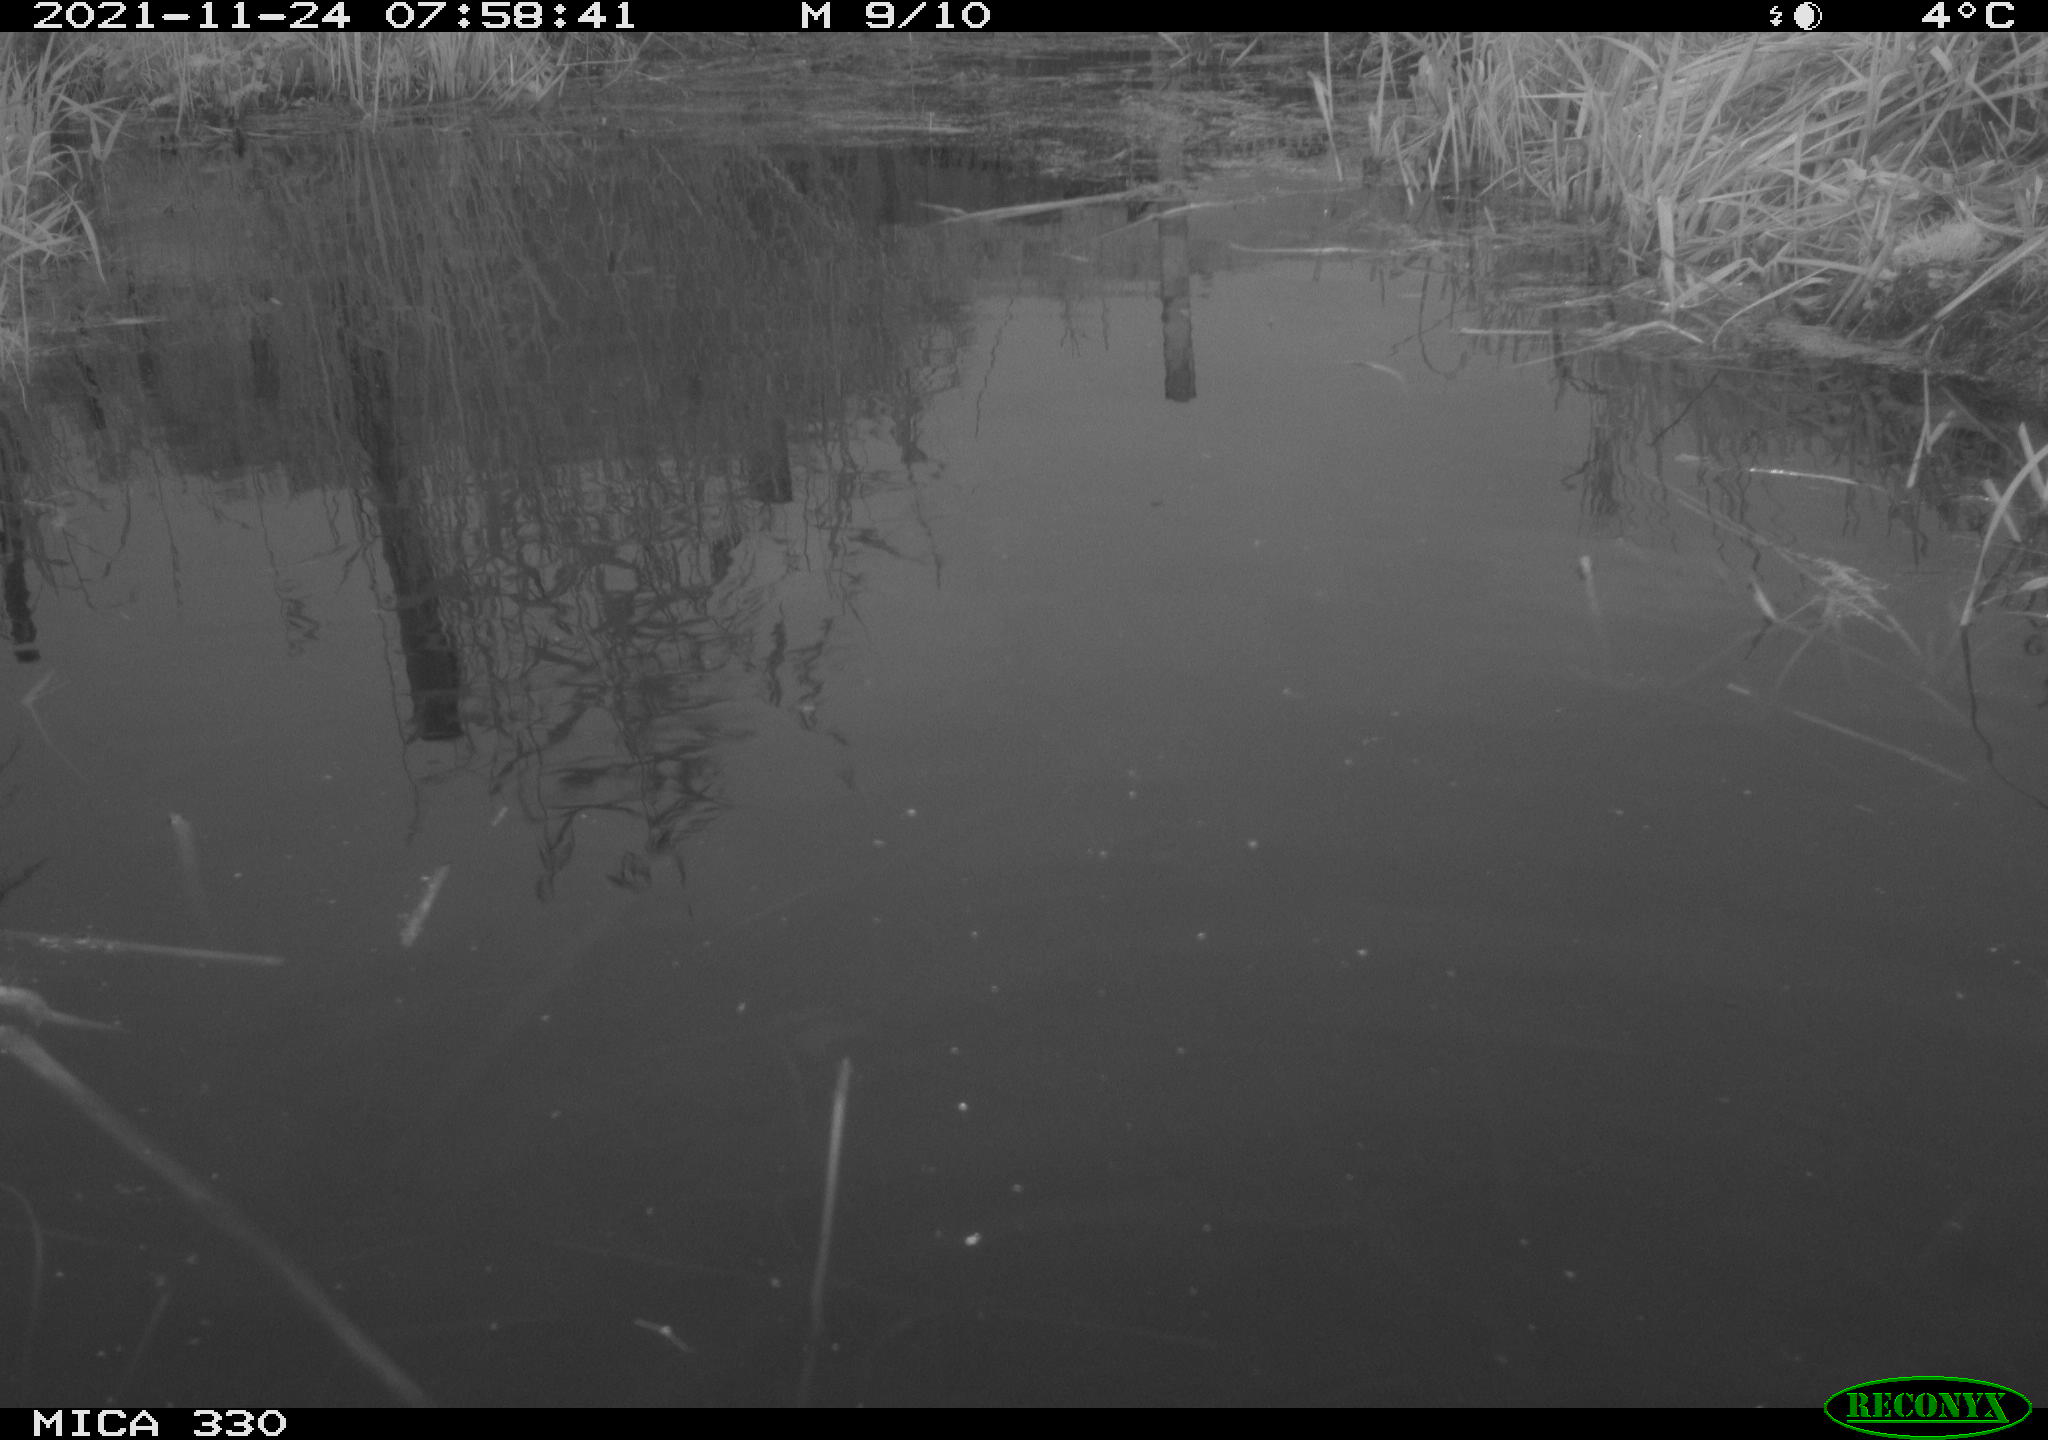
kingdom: Animalia
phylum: Chordata
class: Aves
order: Gruiformes
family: Rallidae
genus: Gallinula
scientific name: Gallinula chloropus
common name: Common moorhen
